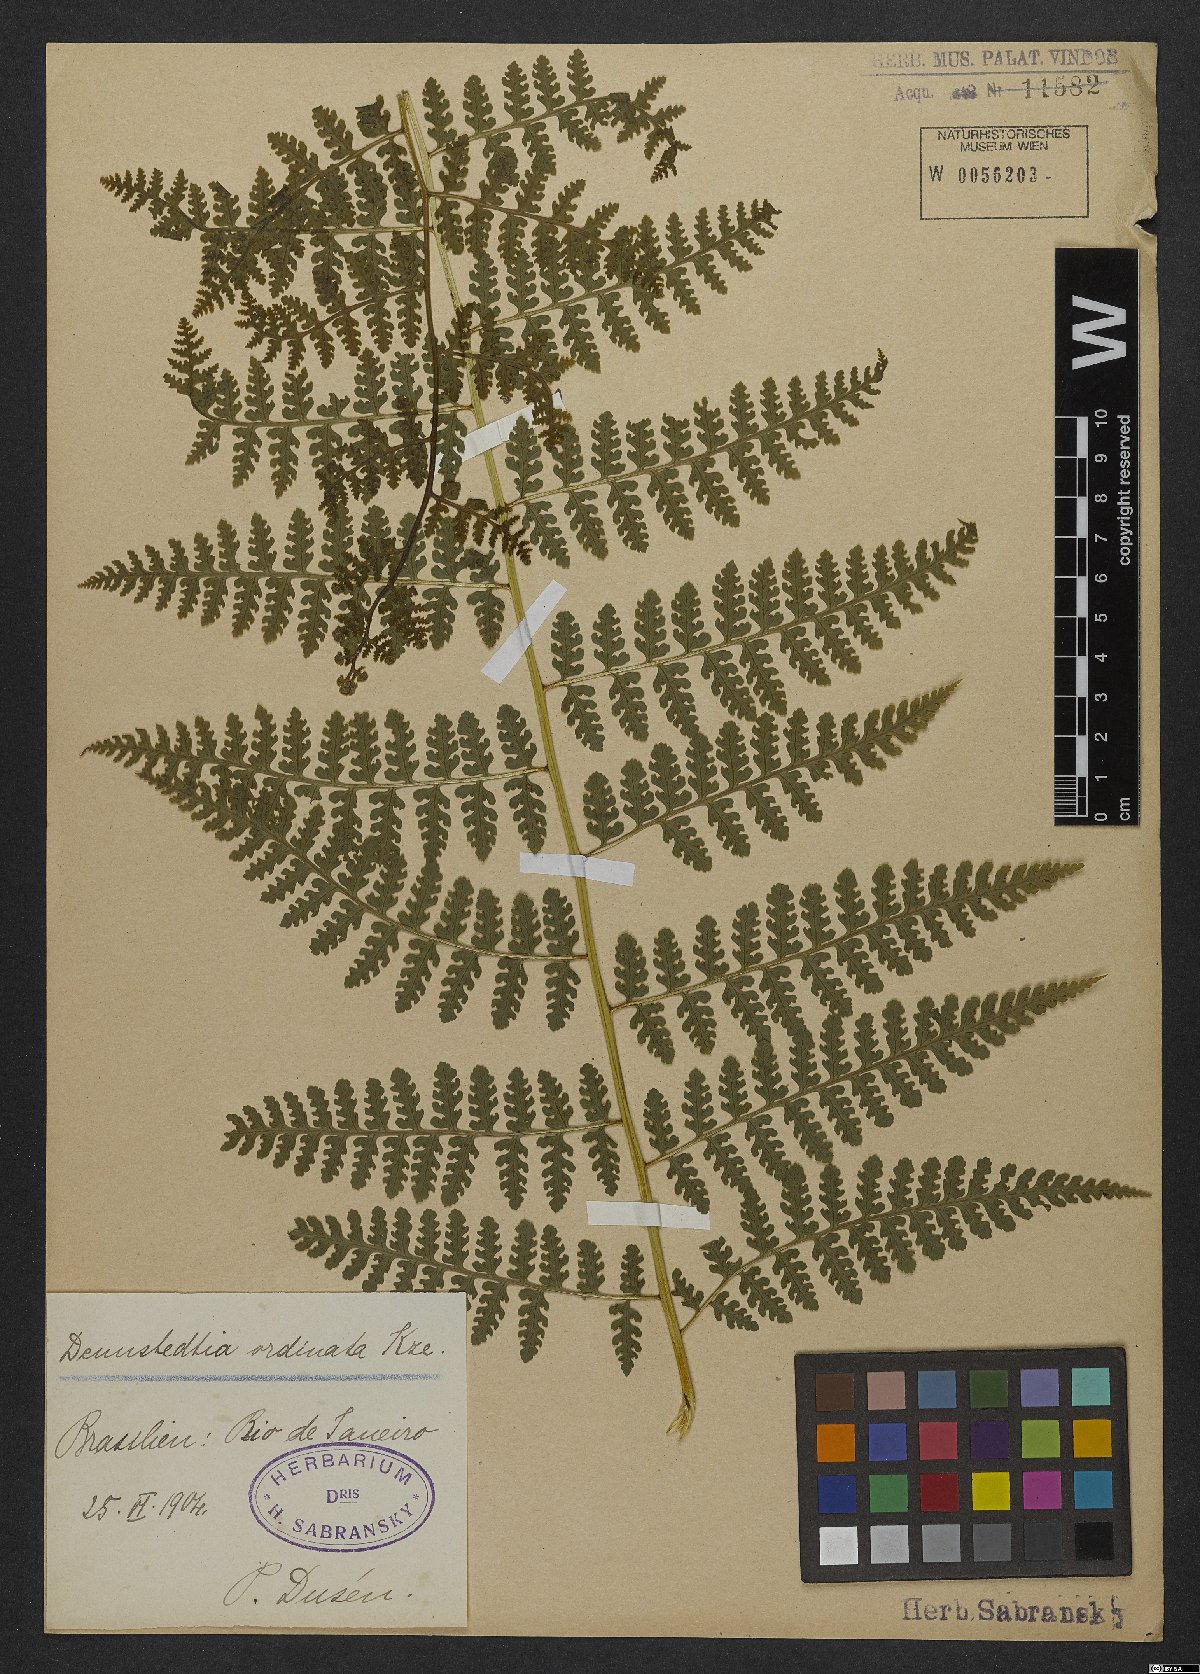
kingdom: Plantae
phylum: Tracheophyta
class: Polypodiopsida
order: Polypodiales
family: Dennstaedtiaceae
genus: Dennstaedtia
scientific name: Dennstaedtia obtusifolia
